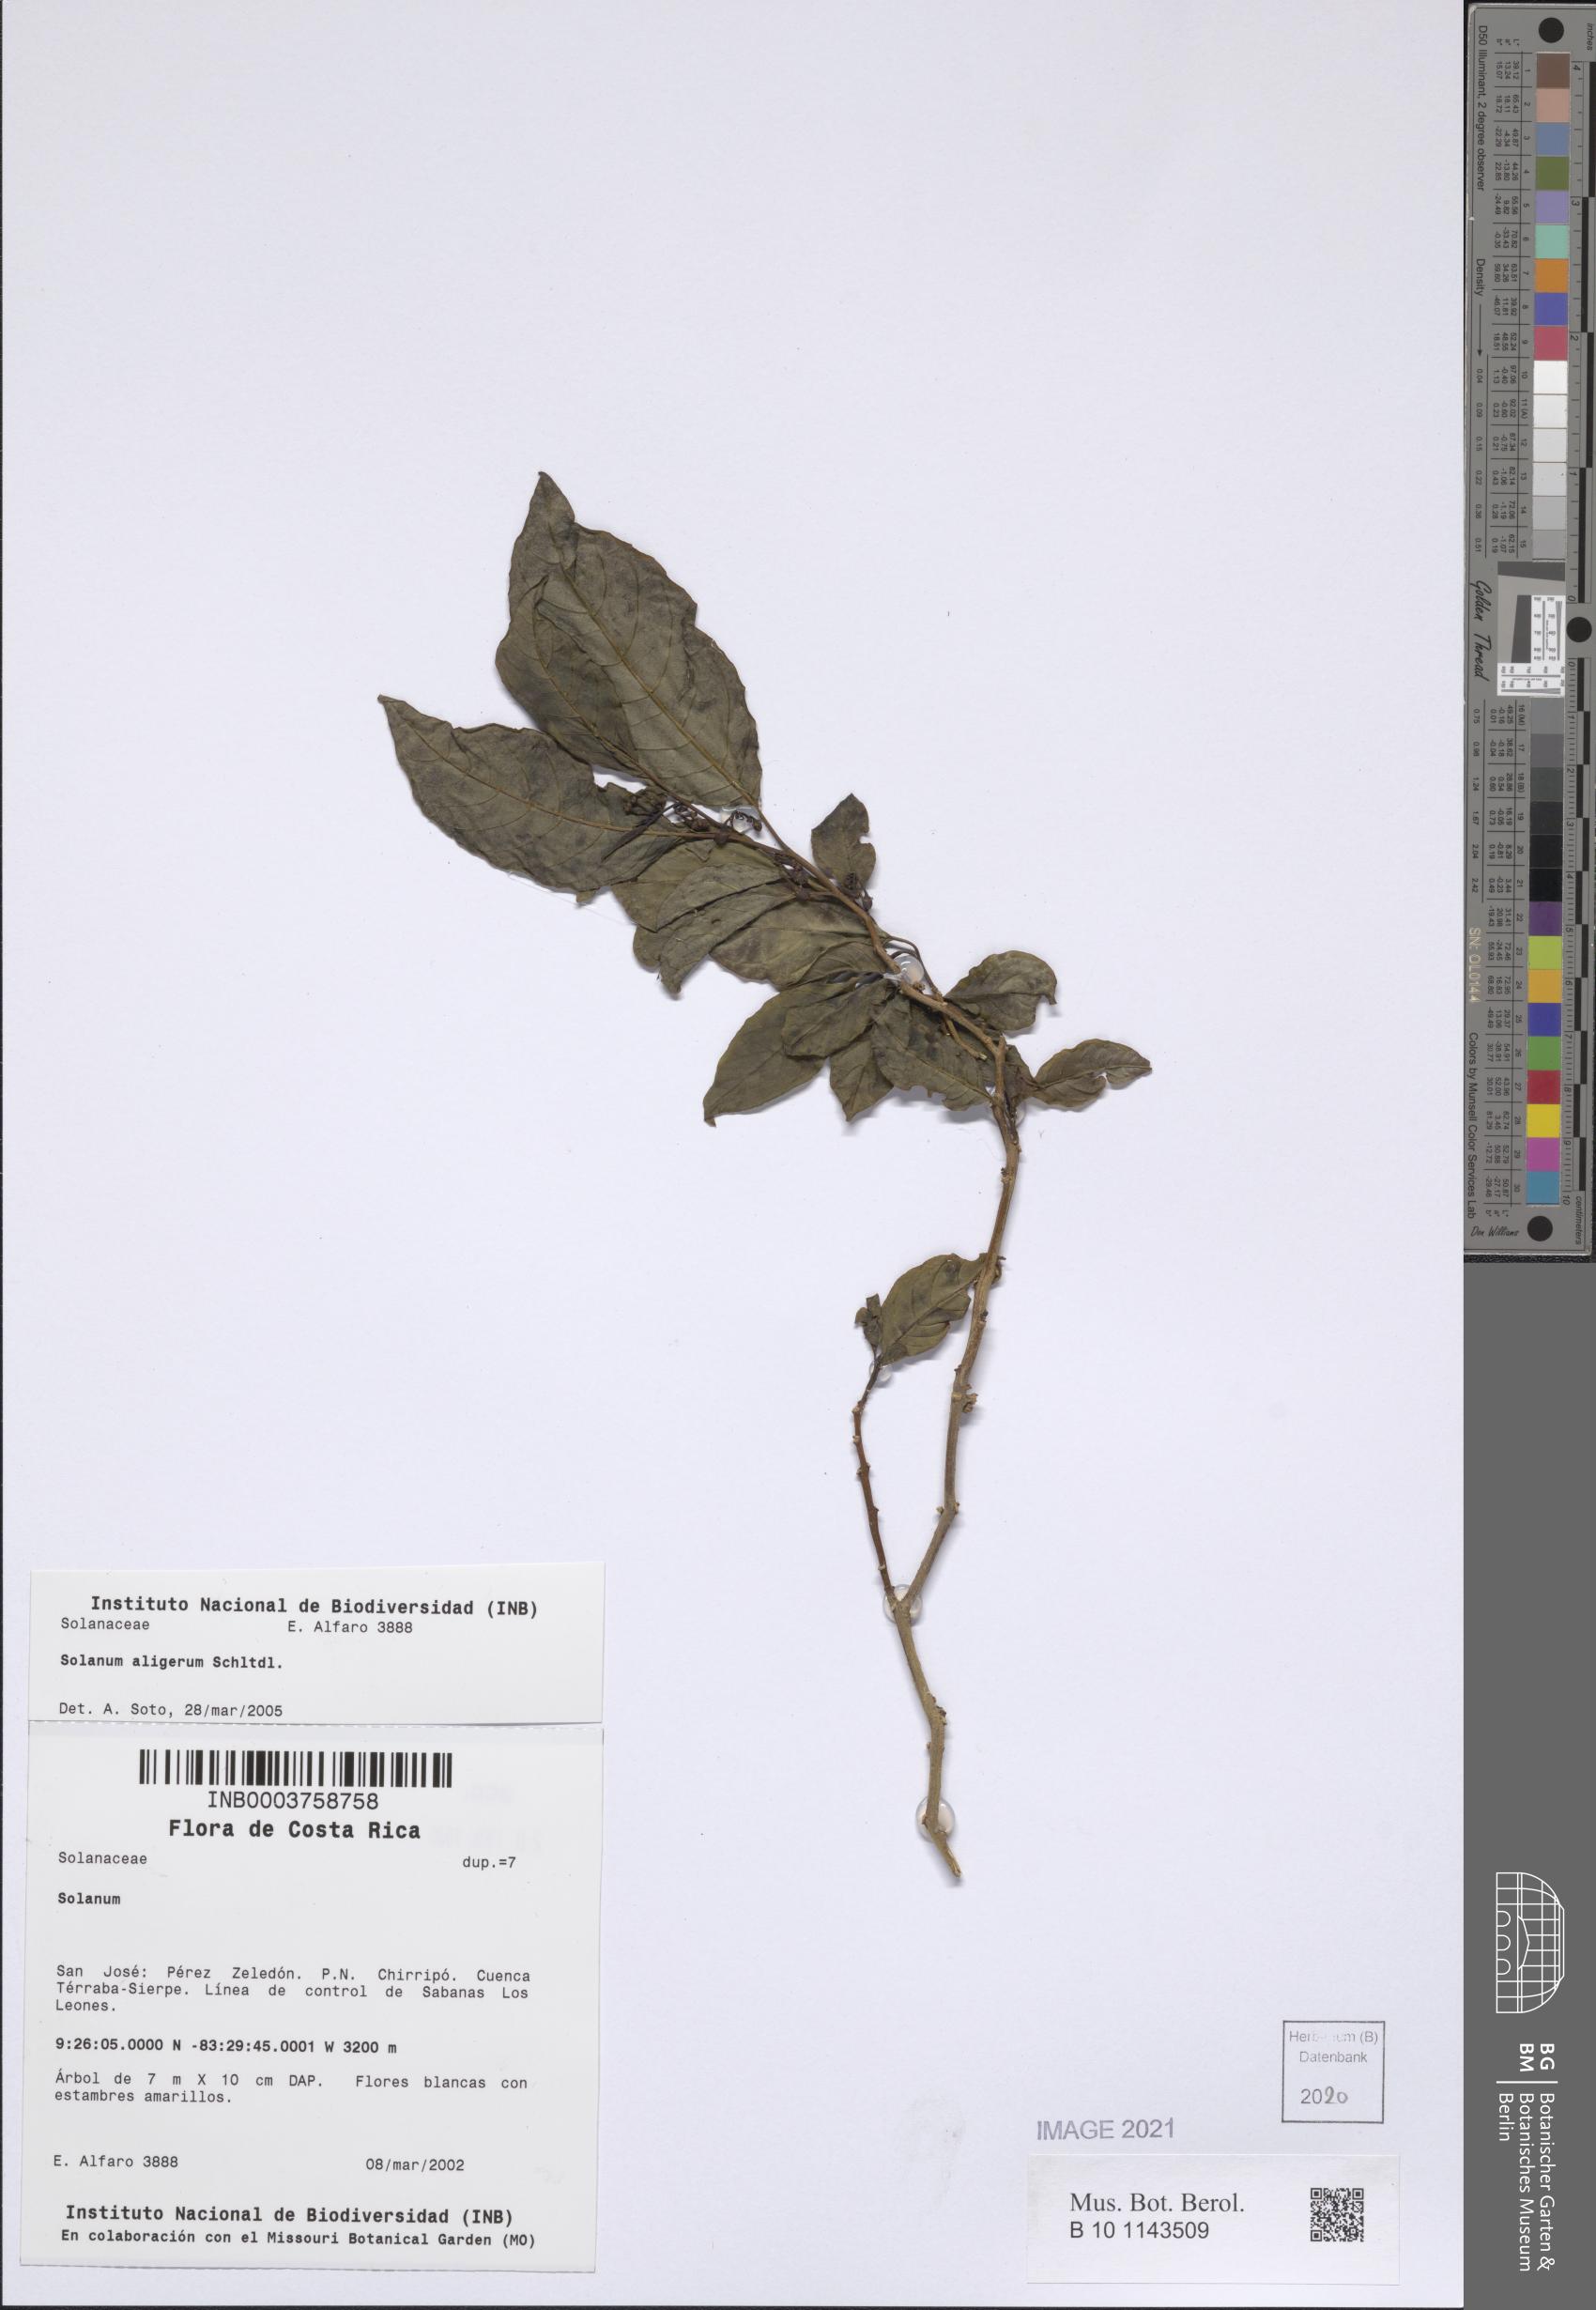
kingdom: Plantae
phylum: Tracheophyta
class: Magnoliopsida
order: Solanales
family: Solanaceae
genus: Solanum
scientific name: Solanum aligerum
